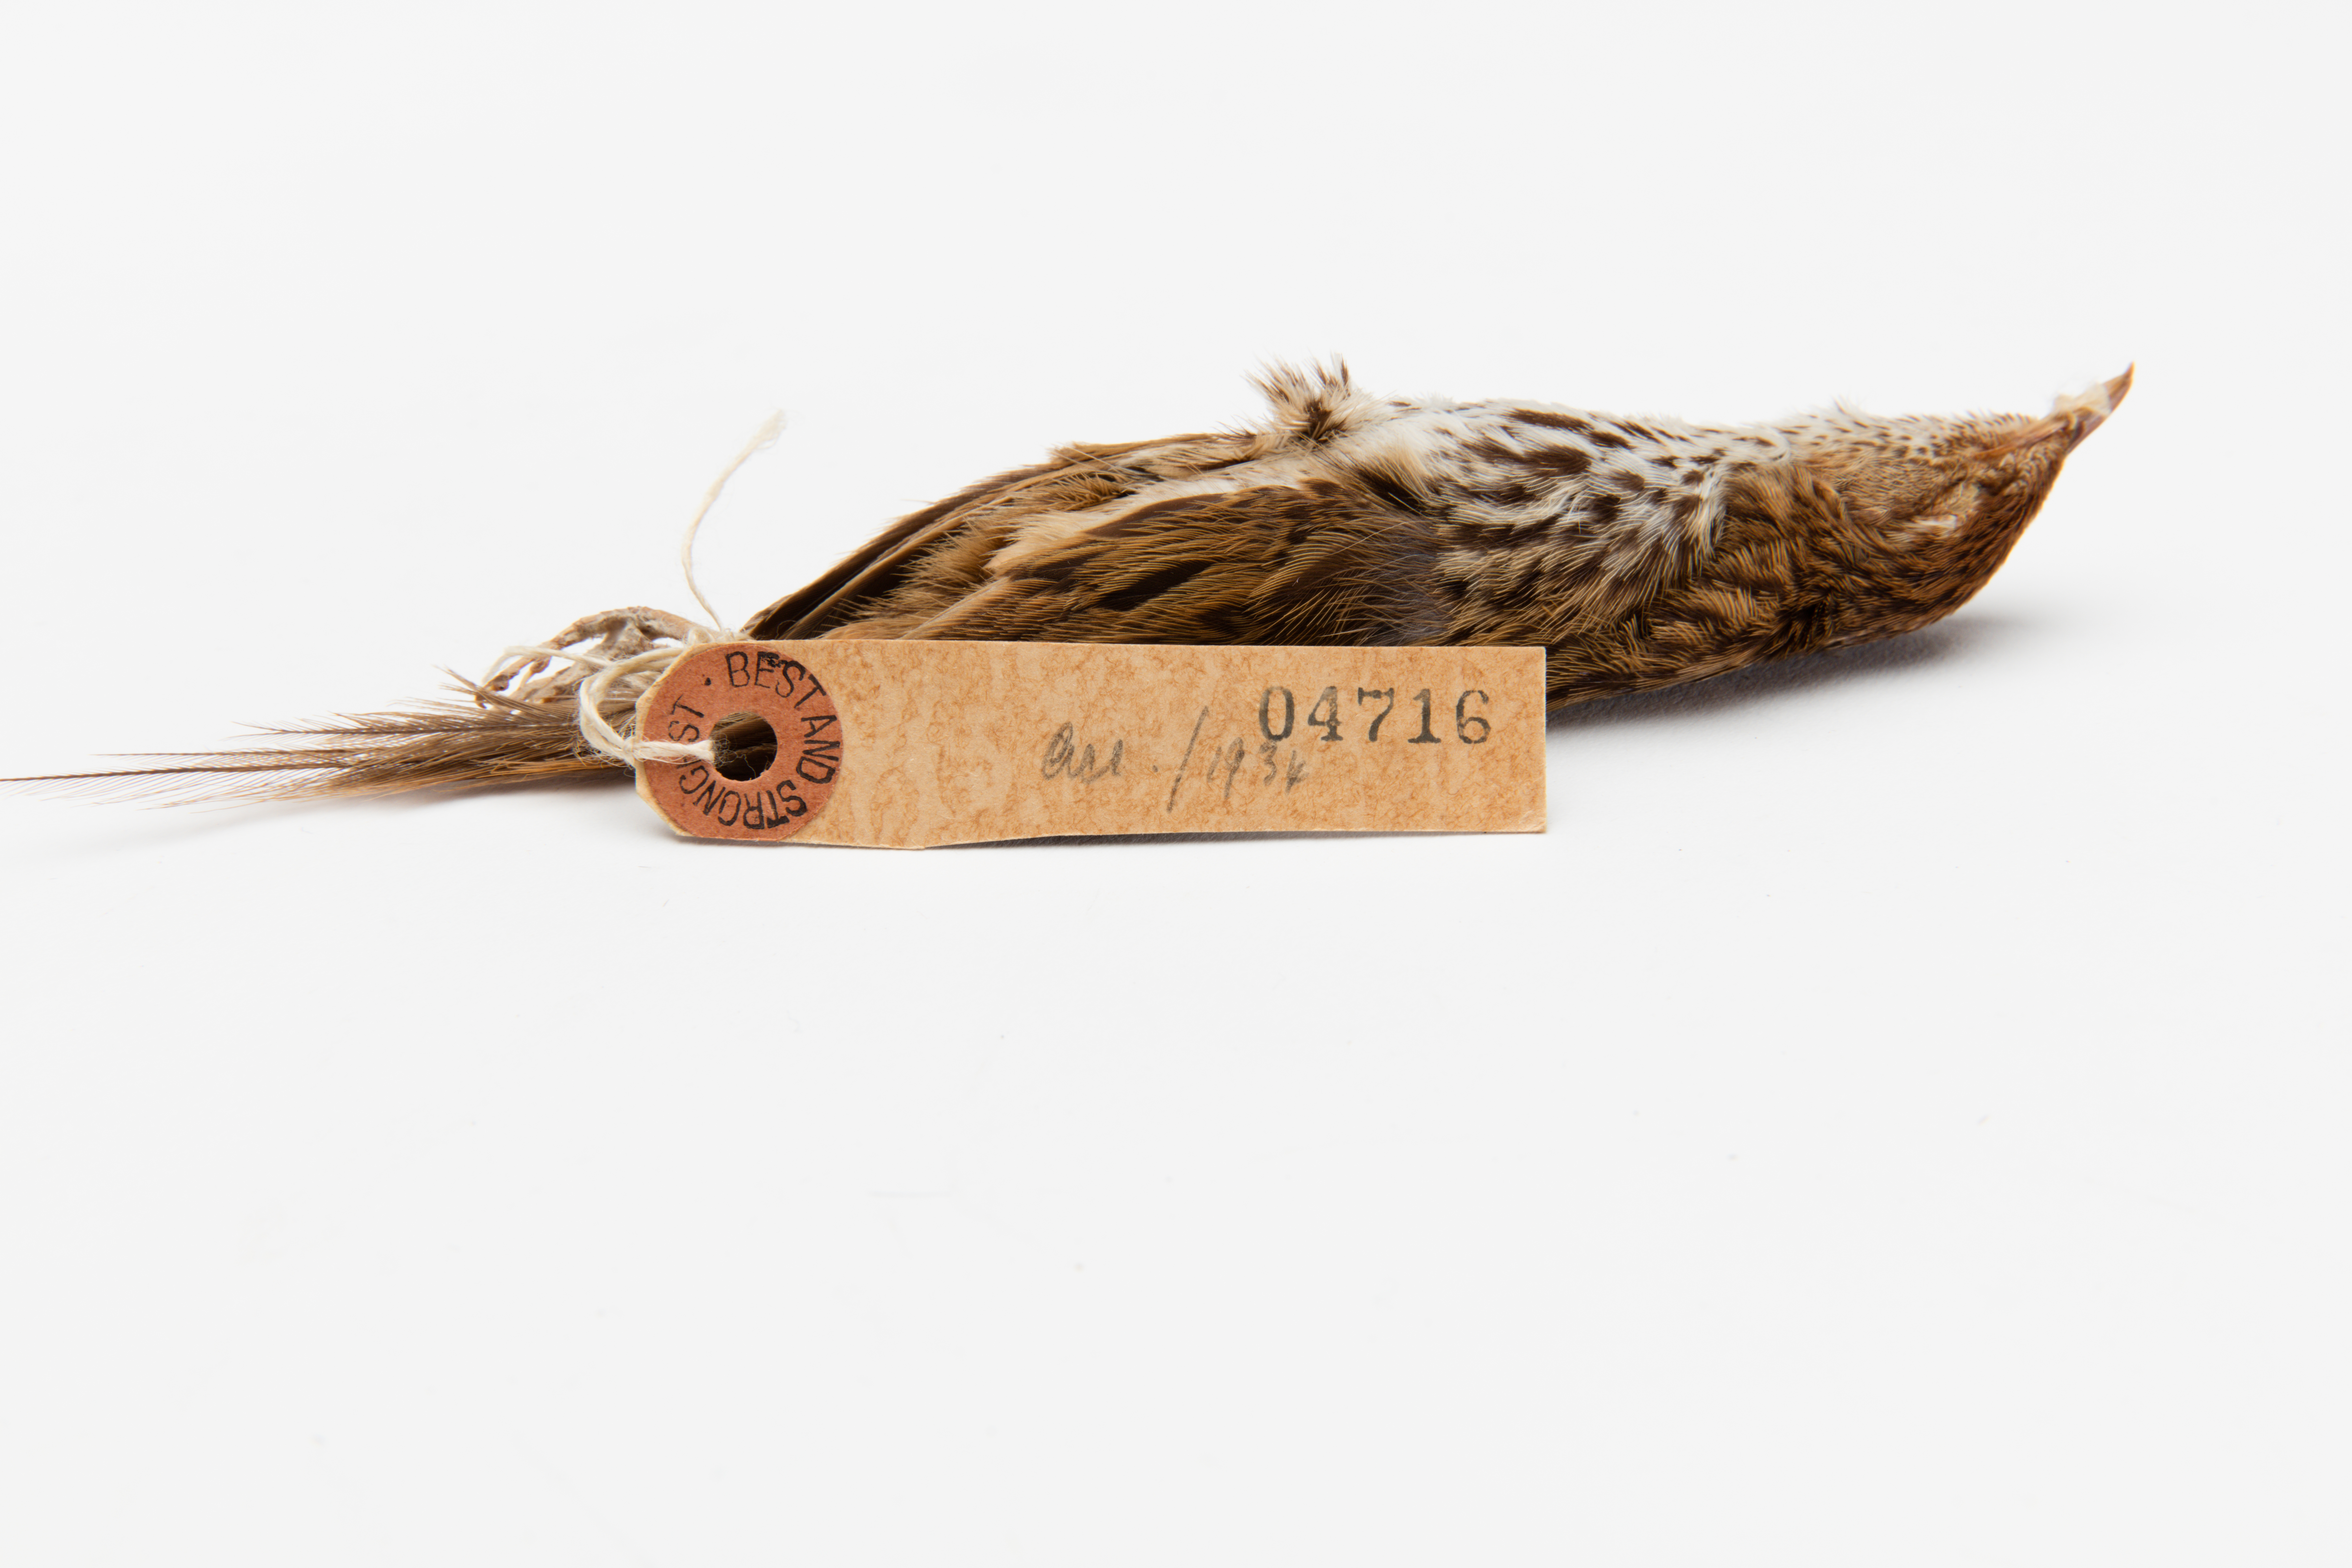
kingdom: Animalia
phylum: Chordata
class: Aves
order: Passeriformes
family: Locustellidae
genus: Megalurus
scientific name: Megalurus punctatus
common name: New zealand fernbird
